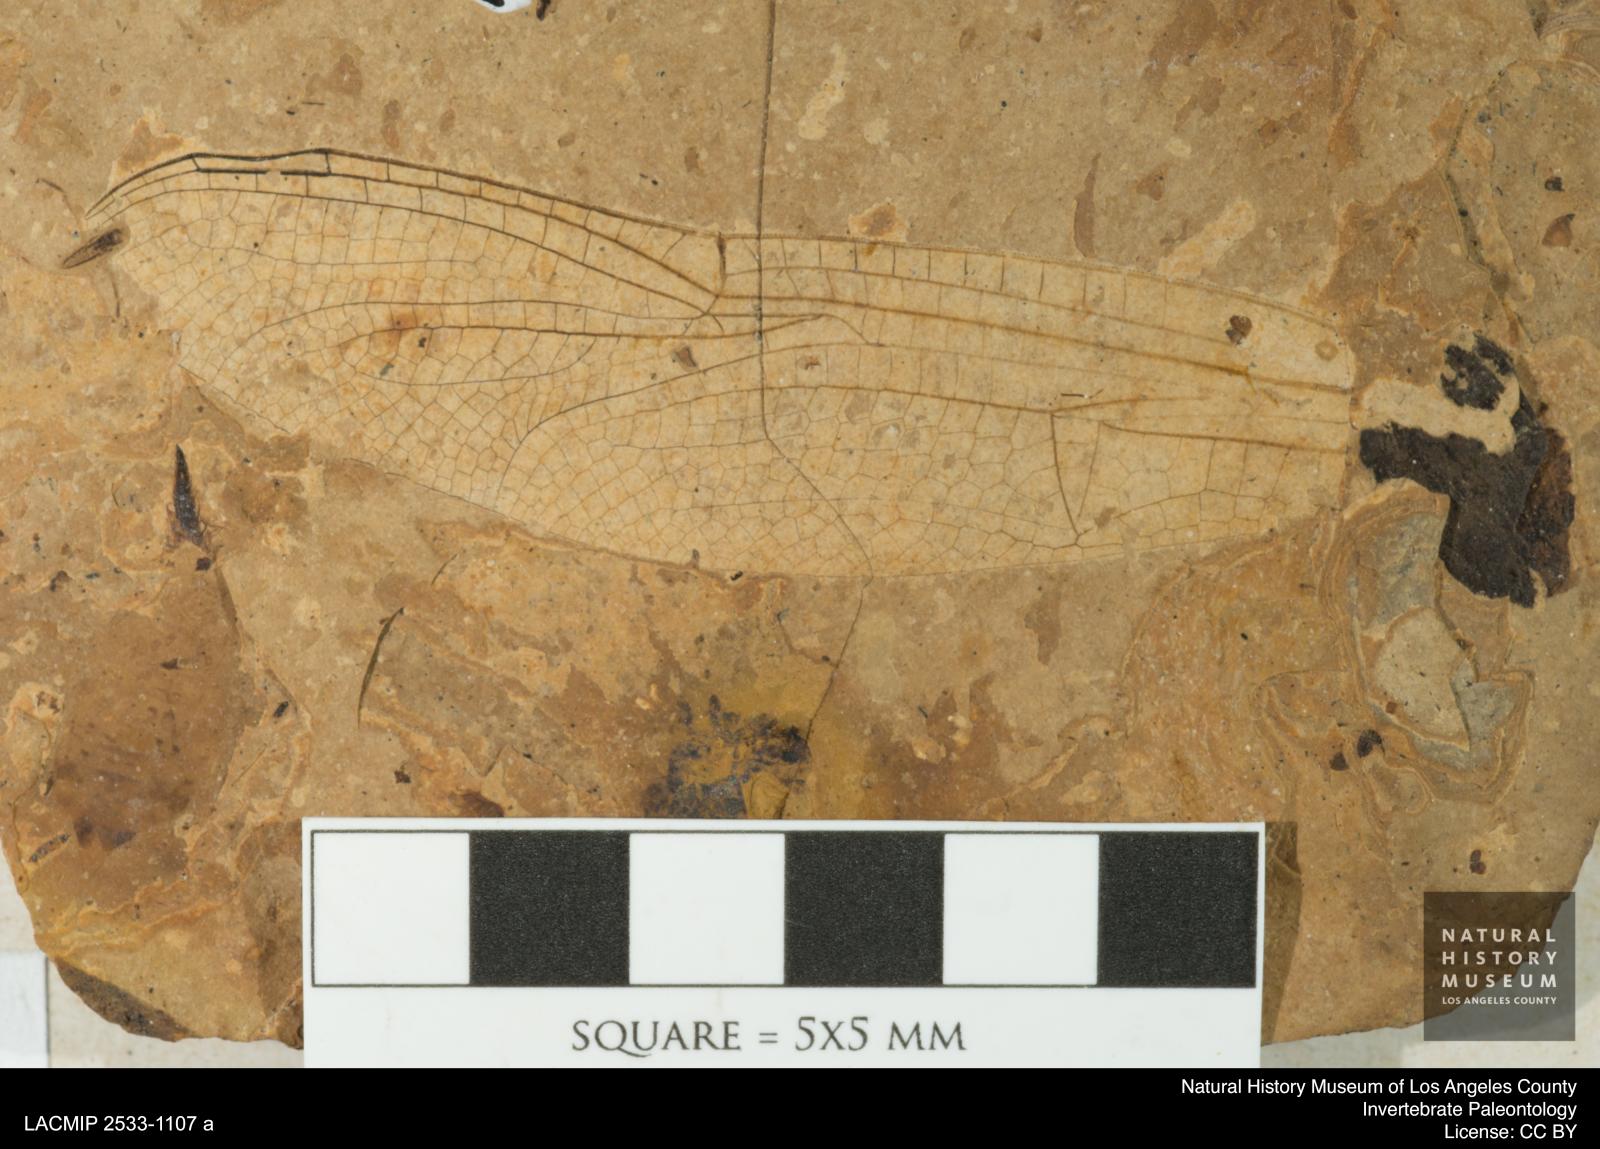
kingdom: Animalia
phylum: Arthropoda
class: Insecta
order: Odonata
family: Libellulidae
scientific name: Libellulidae
